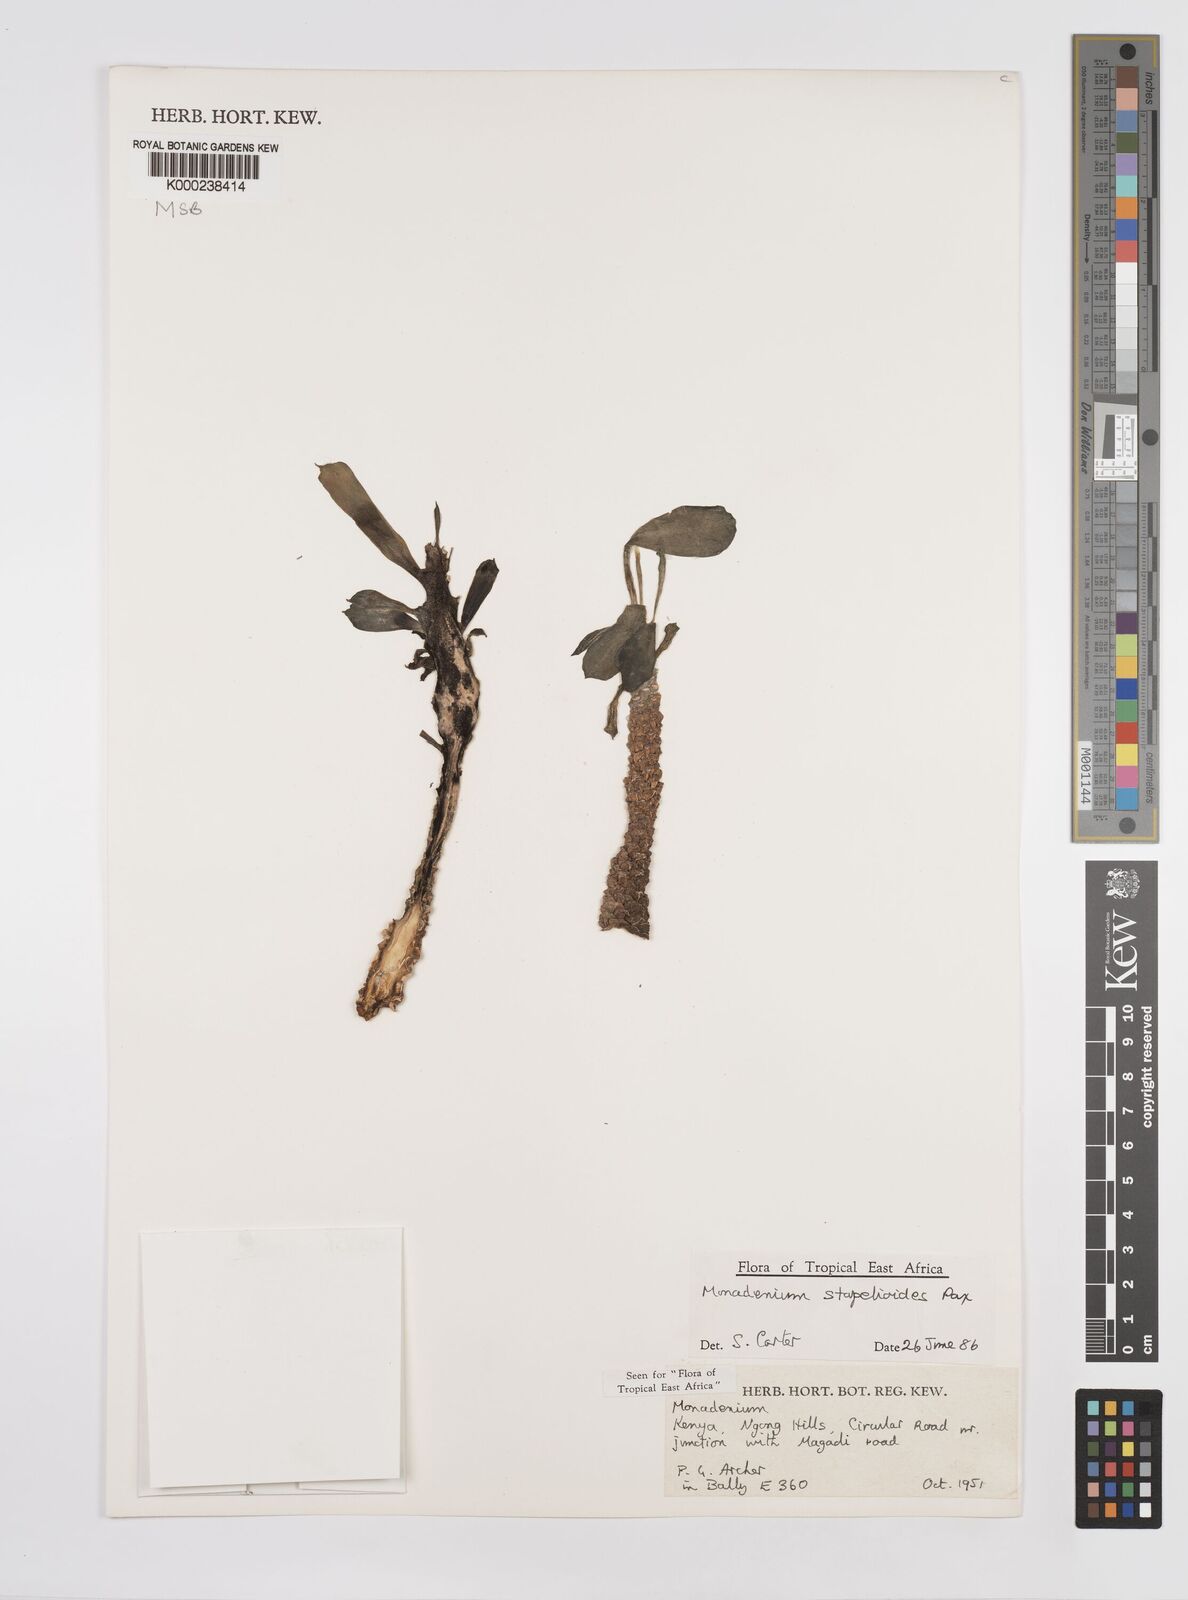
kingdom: Plantae
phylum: Tracheophyta
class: Magnoliopsida
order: Malpighiales
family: Euphorbiaceae
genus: Euphorbia
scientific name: Euphorbia succulenta
